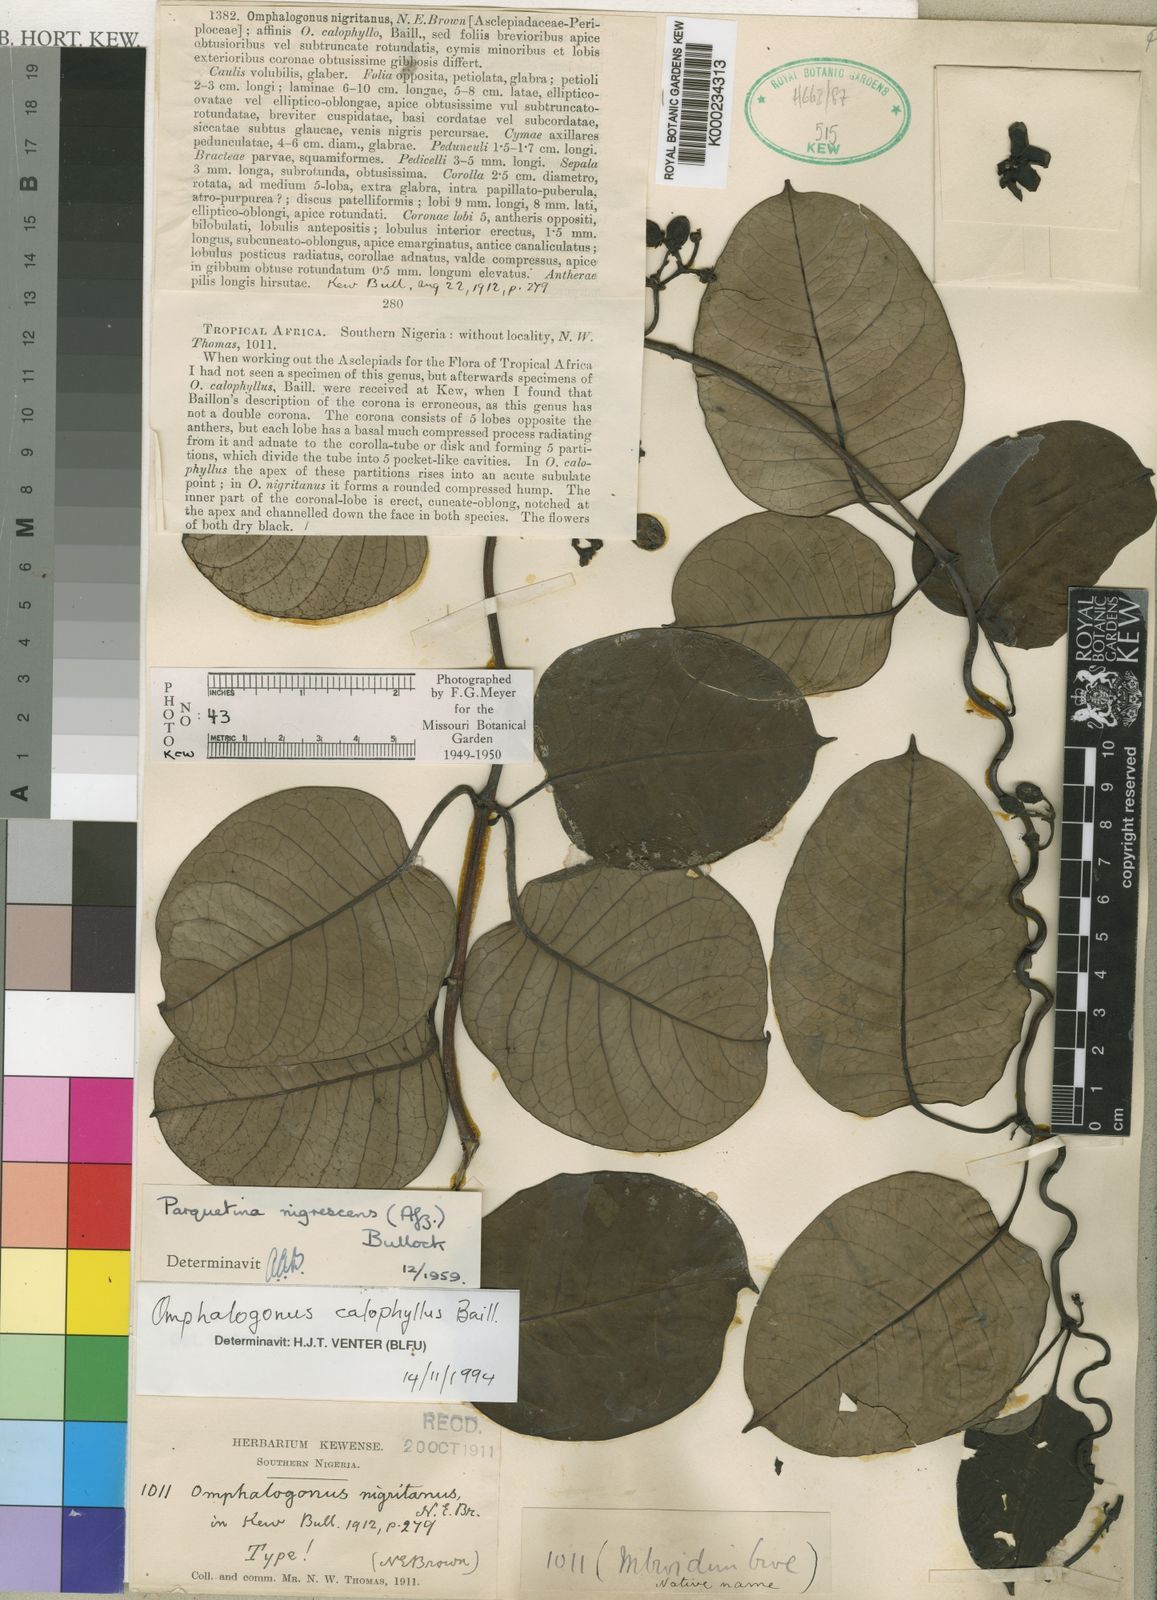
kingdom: Plantae
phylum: Tracheophyta
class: Magnoliopsida
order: Gentianales
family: Apocynaceae
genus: Cryptolepis
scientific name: Cryptolepis calophylla
